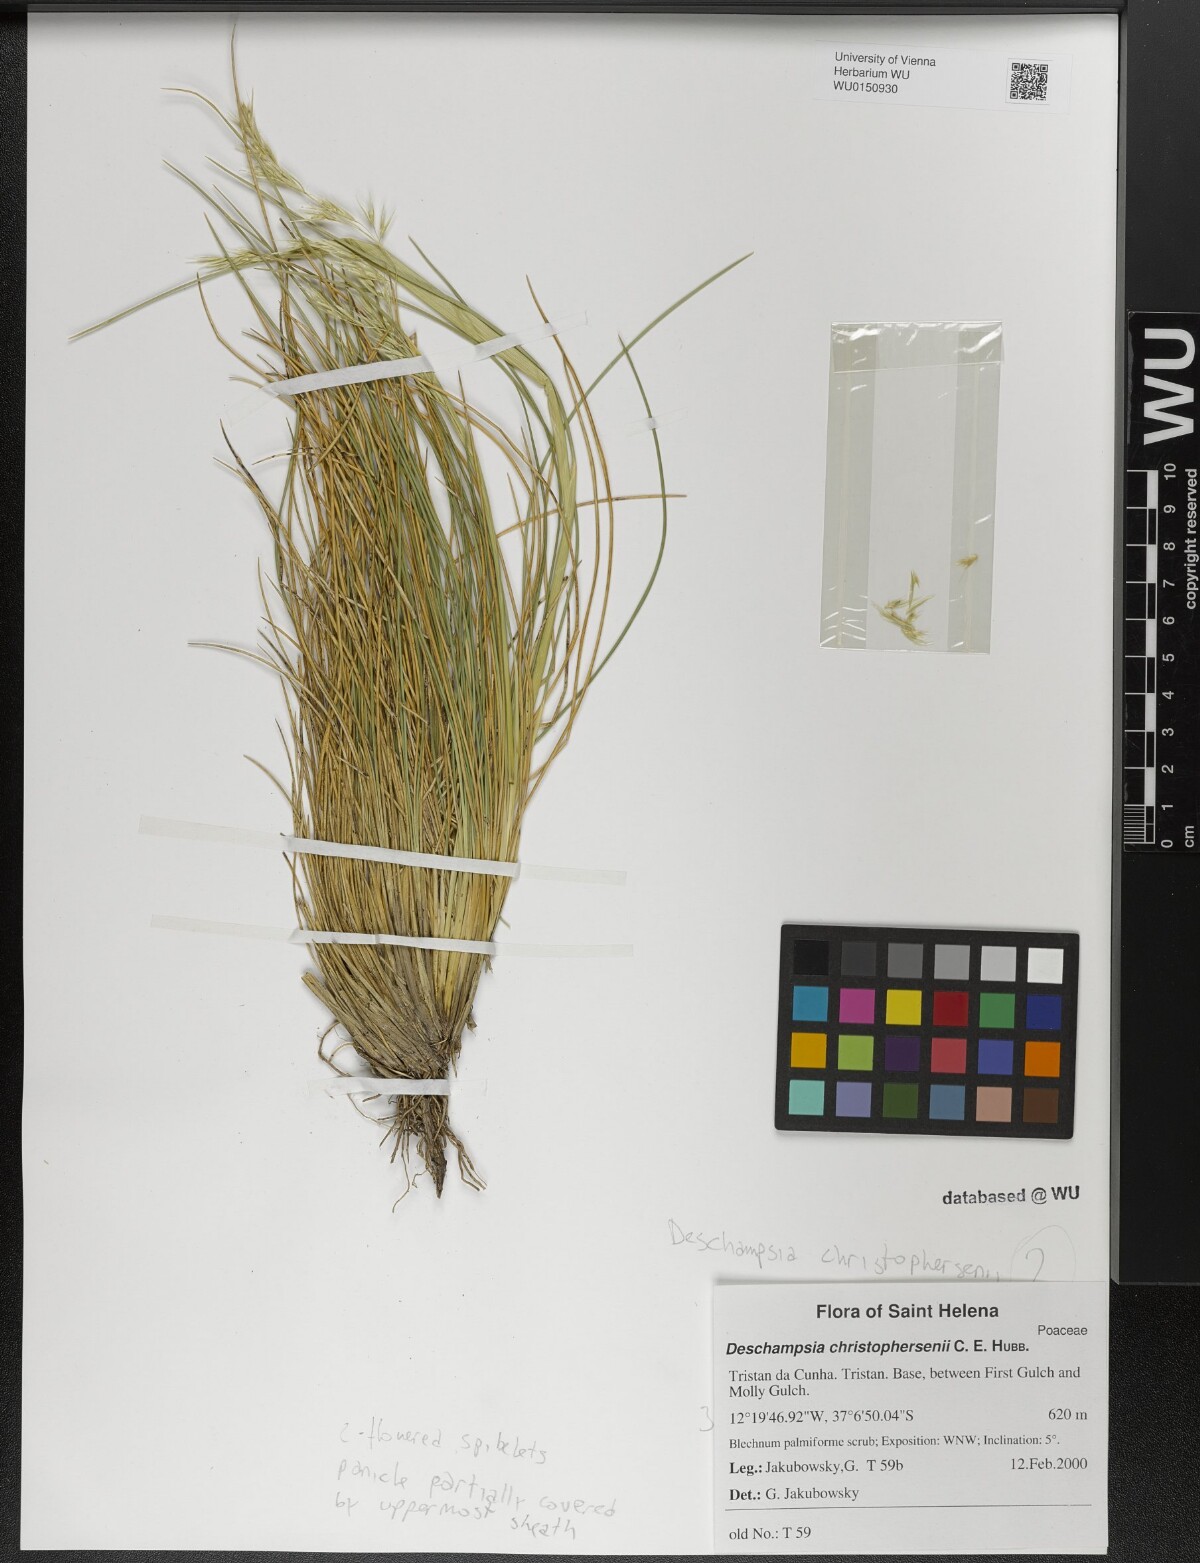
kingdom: Plantae
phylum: Tracheophyta
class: Liliopsida
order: Poales
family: Poaceae
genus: Deschampsia
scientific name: Deschampsia christophersenii
